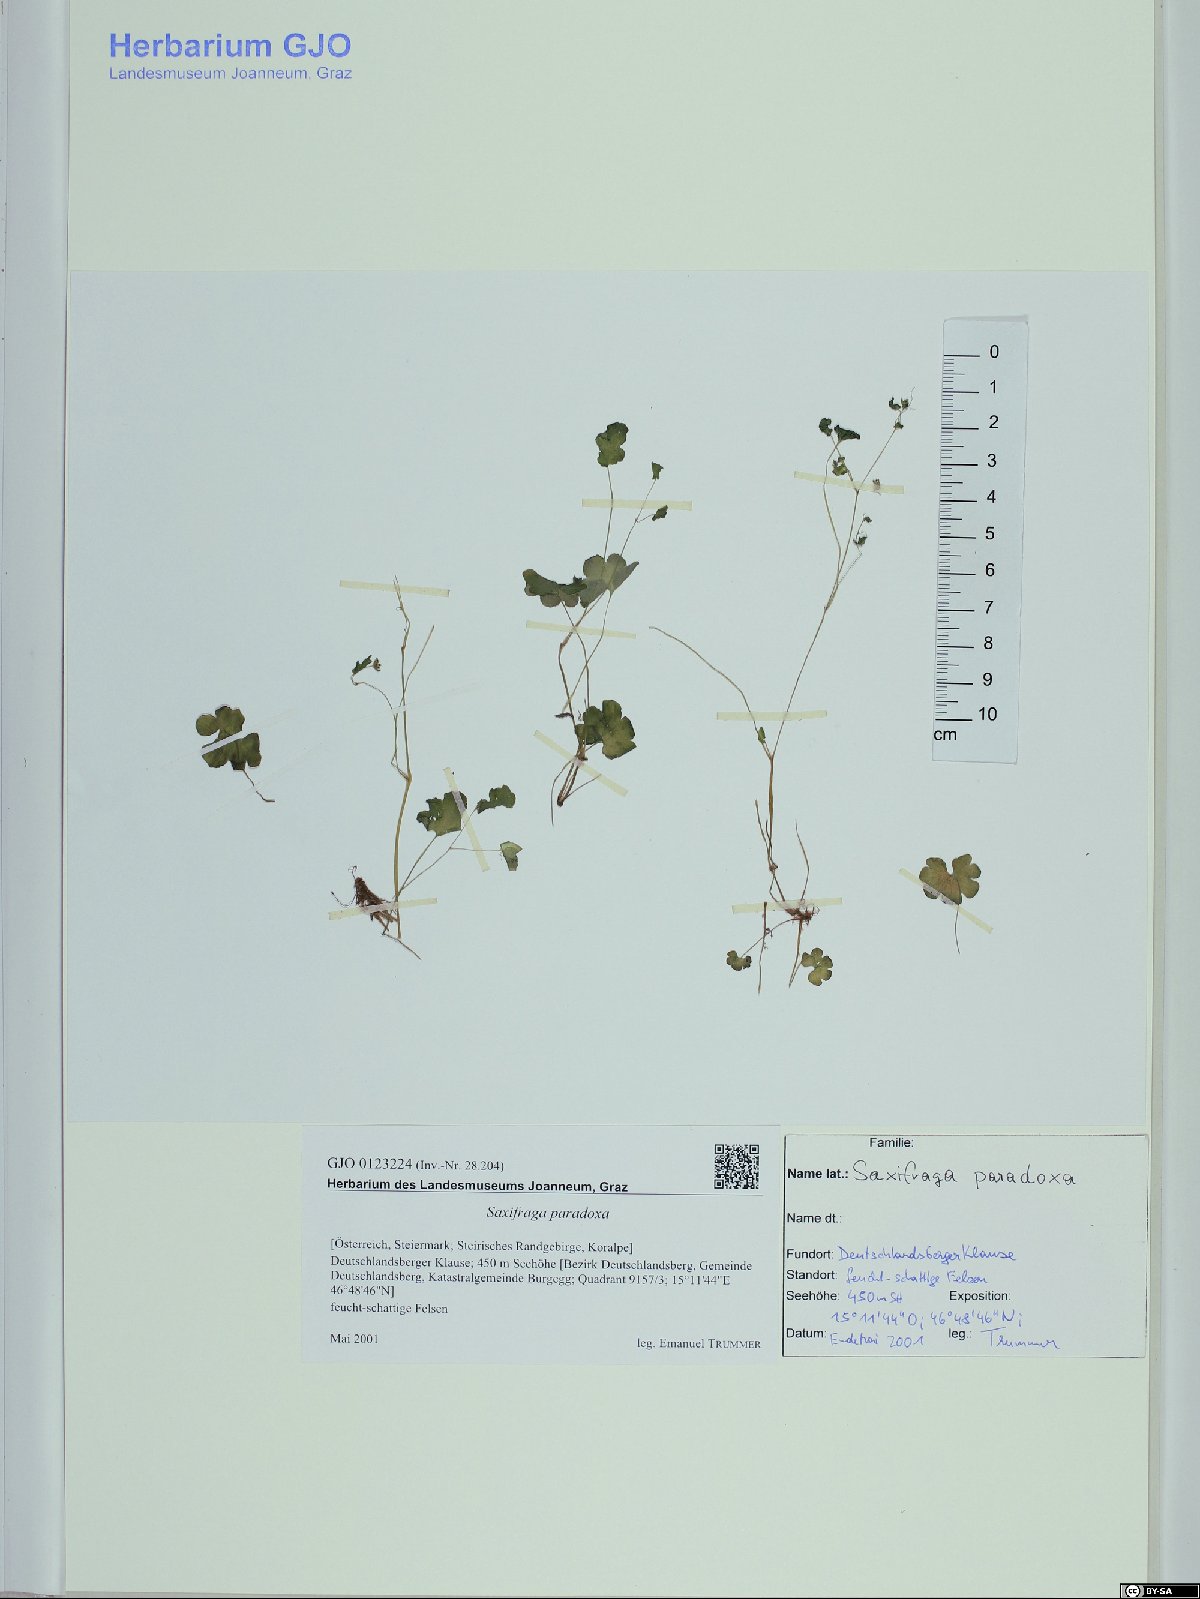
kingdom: Plantae
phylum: Tracheophyta
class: Magnoliopsida
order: Saxifragales
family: Saxifragaceae
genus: Saxifraga
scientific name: Saxifraga paradoxa
